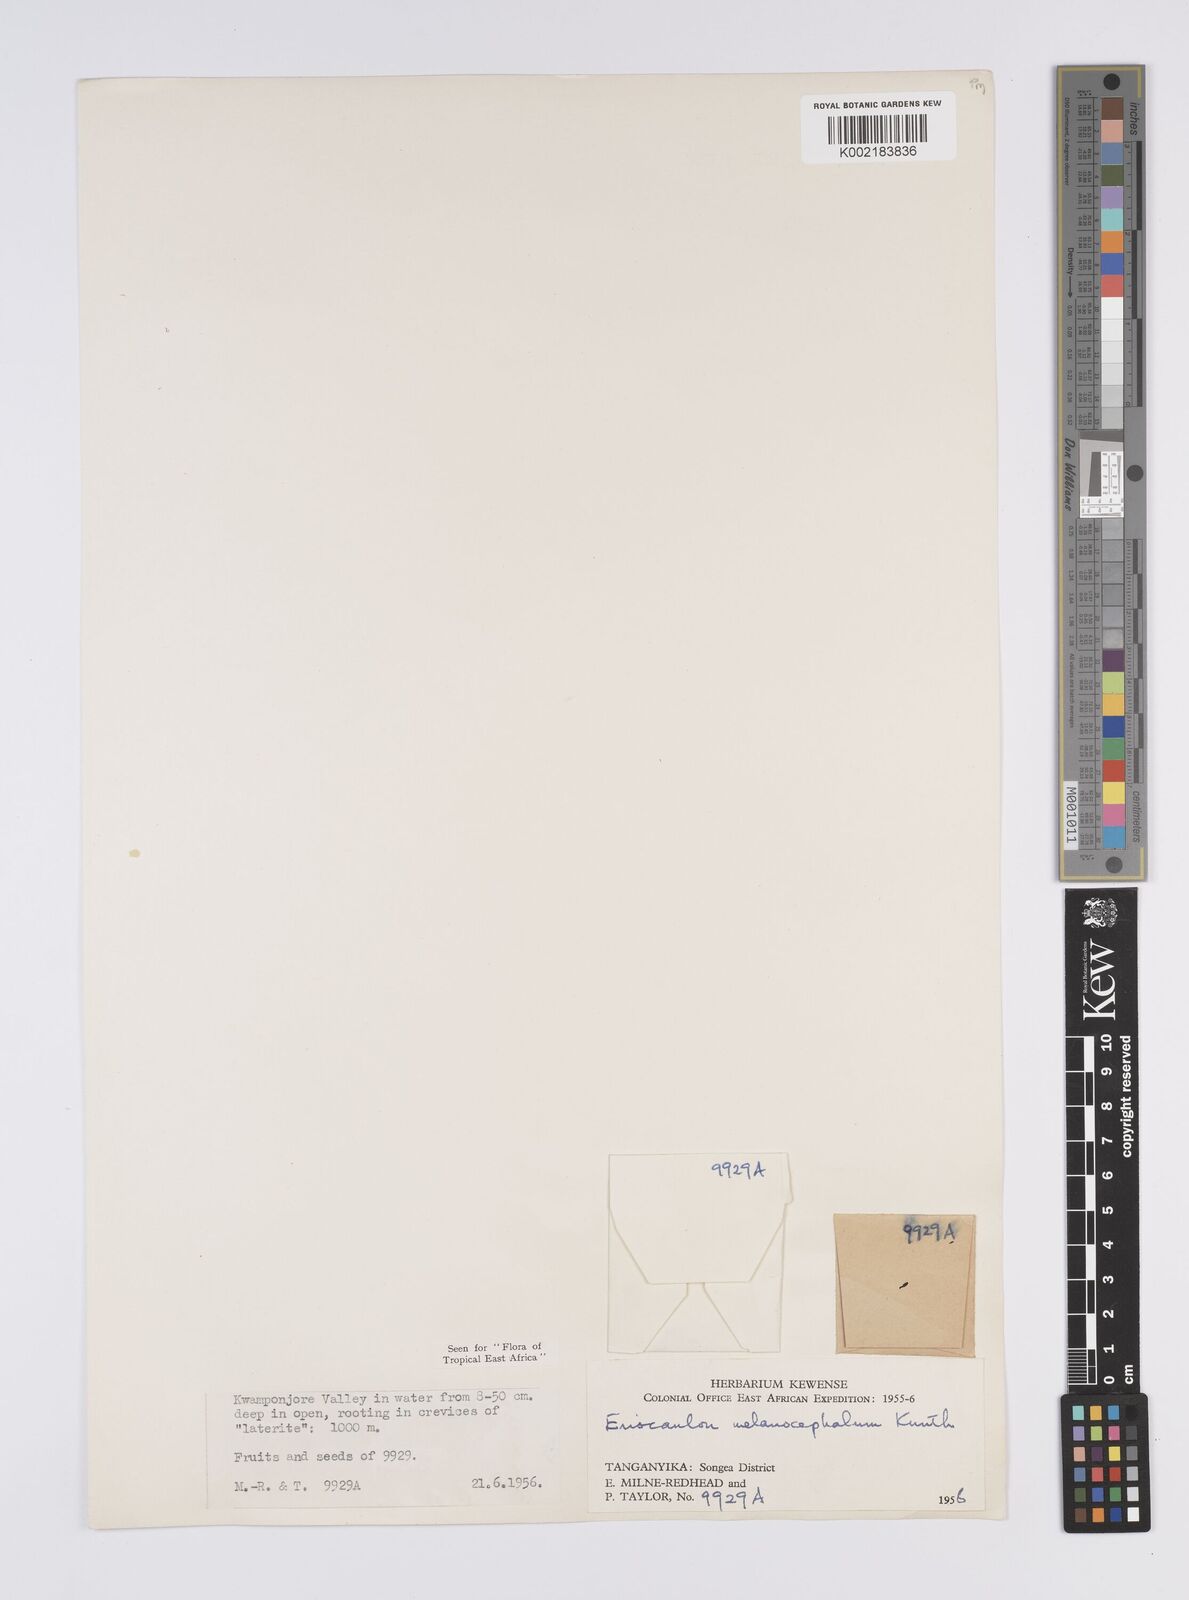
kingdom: Plantae
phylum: Tracheophyta
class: Liliopsida
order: Poales
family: Eriocaulaceae
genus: Eriocaulon
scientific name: Eriocaulon setaceum
